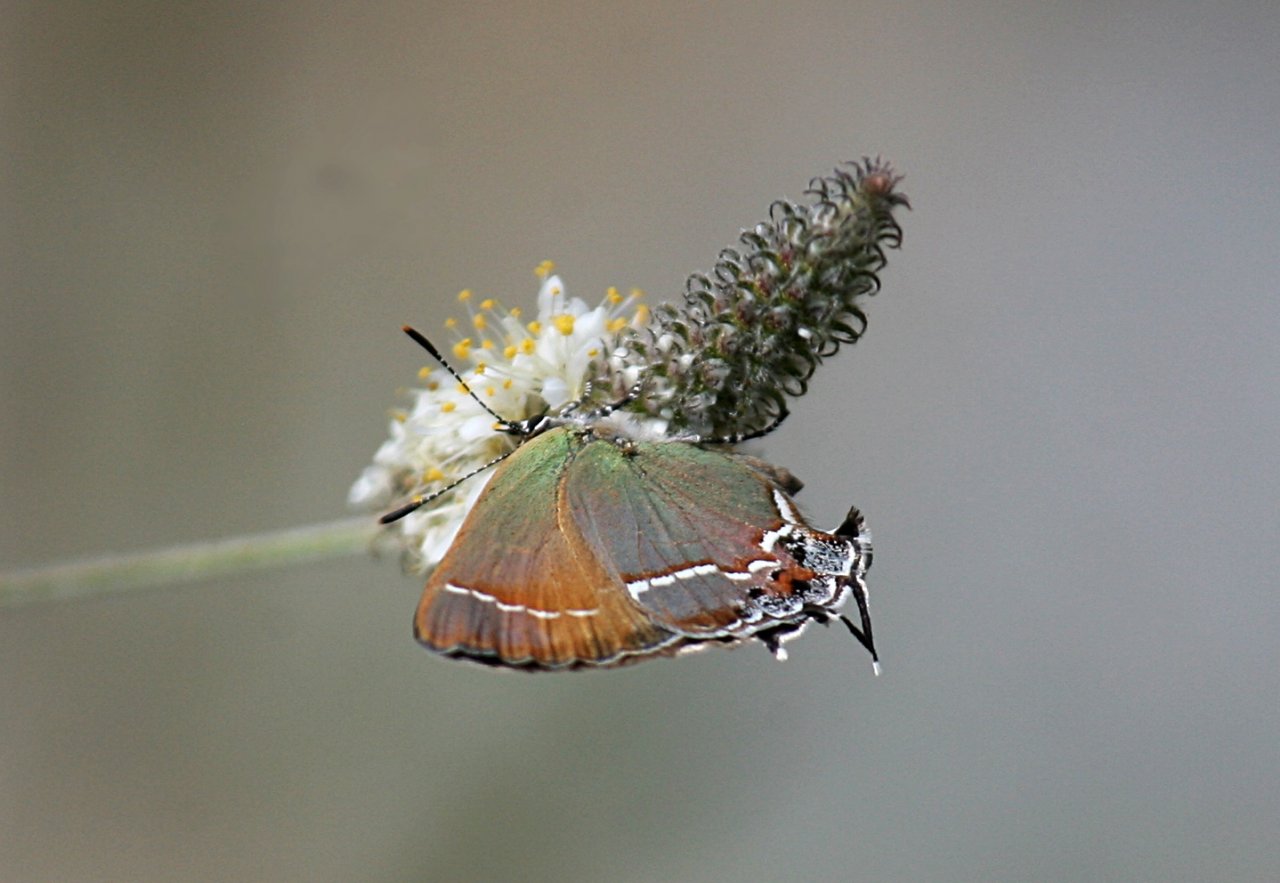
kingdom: Animalia
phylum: Arthropoda
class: Insecta
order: Lepidoptera
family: Lycaenidae
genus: Mitoura
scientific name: Mitoura gryneus
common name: Juniper Hairstreak
